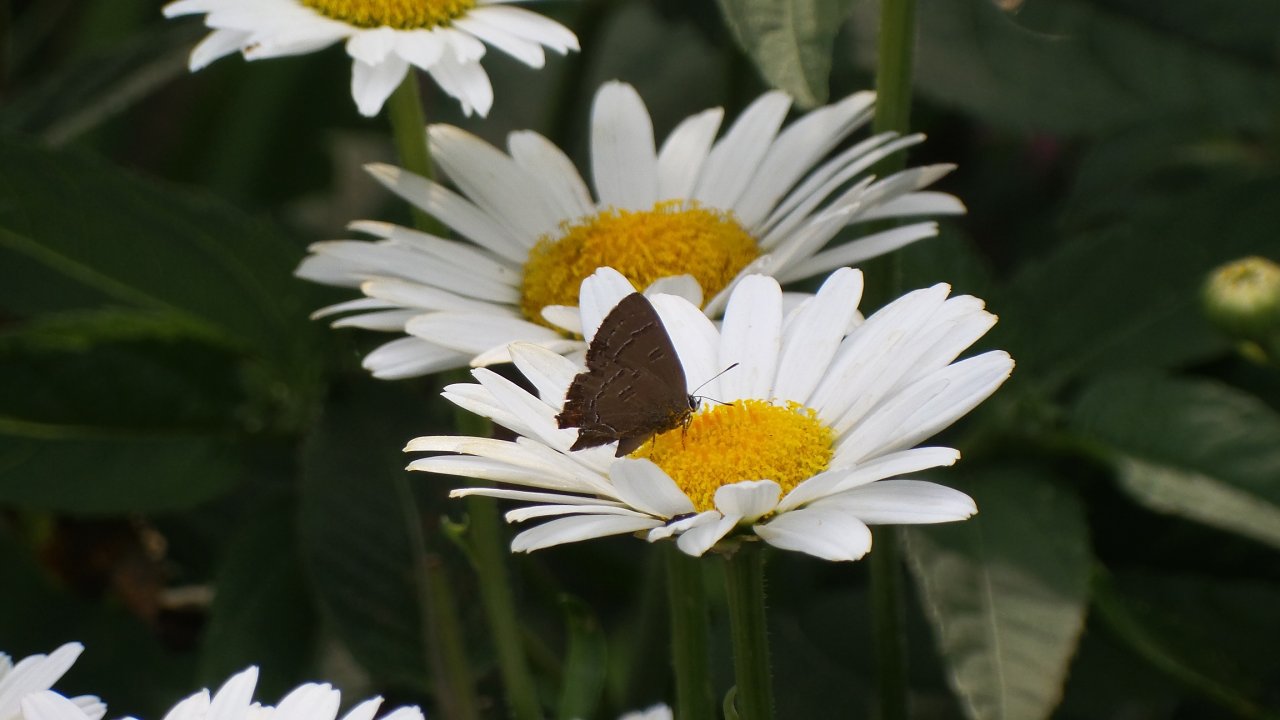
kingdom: Animalia
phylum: Arthropoda
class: Insecta
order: Lepidoptera
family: Lycaenidae
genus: Satyrium
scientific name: Satyrium calanus
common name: Banded Hairstreak
